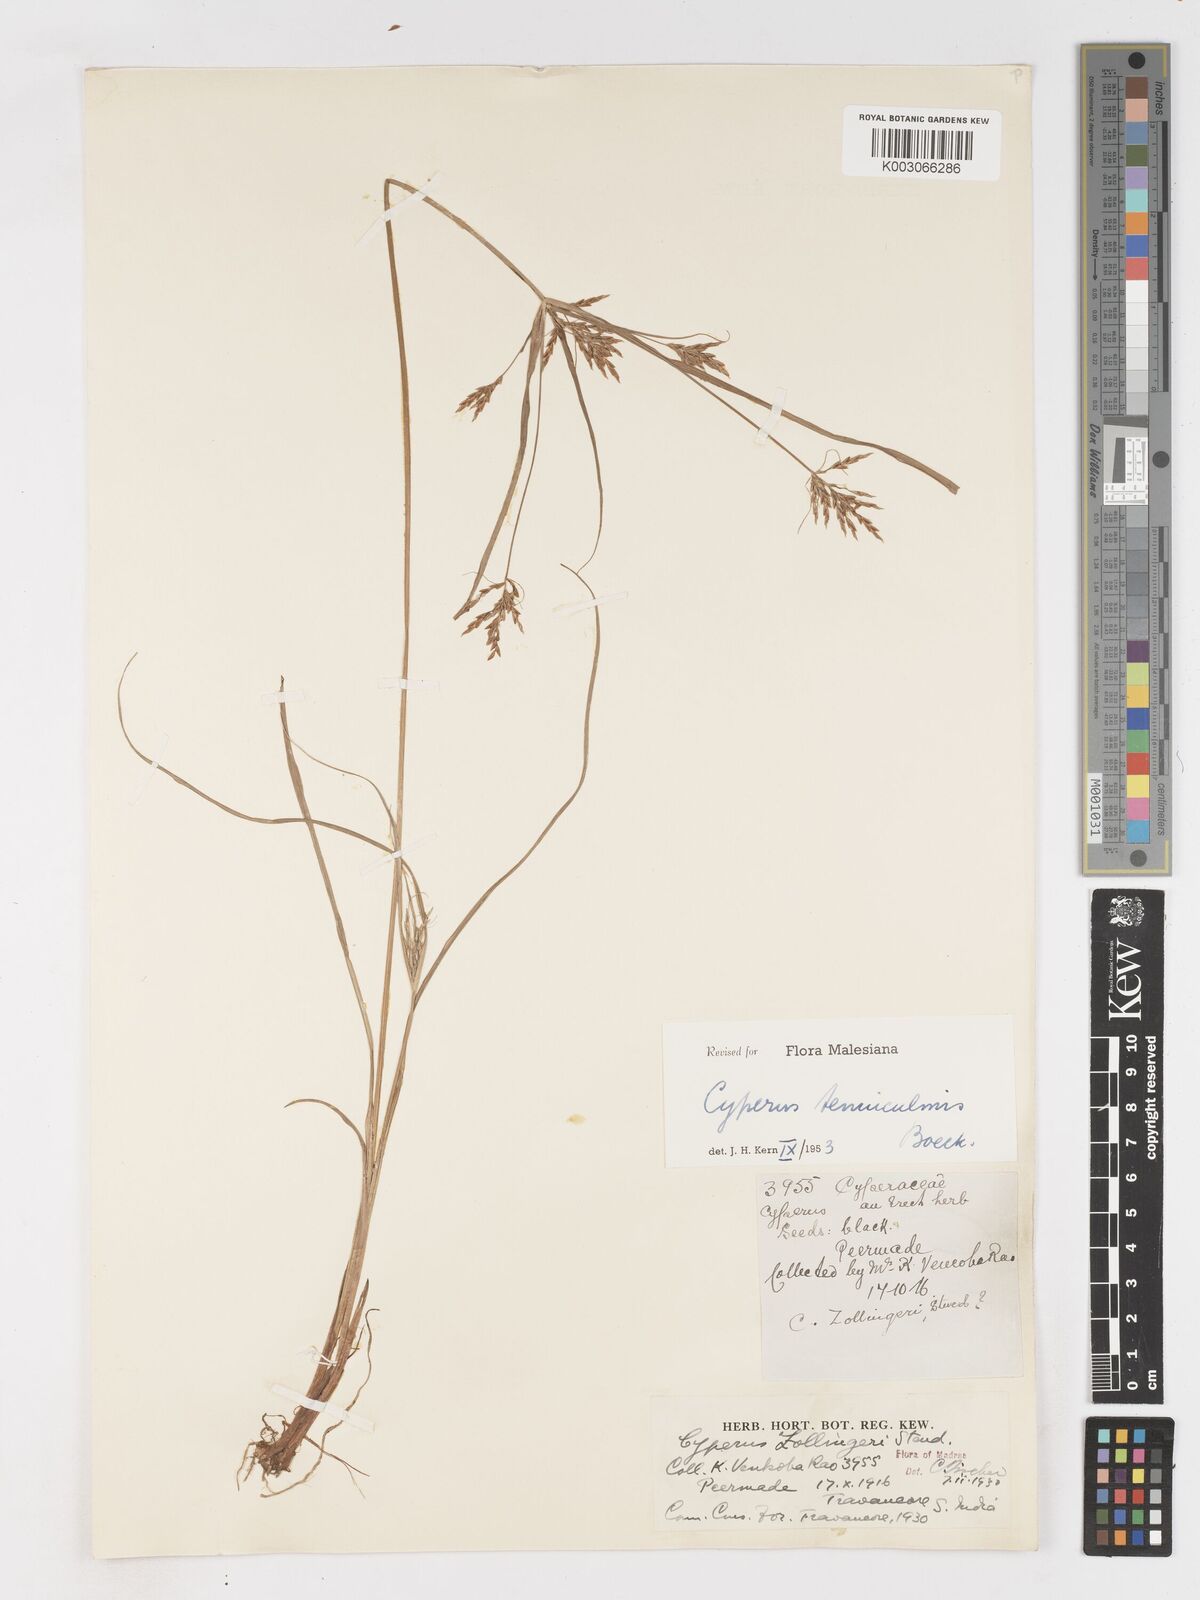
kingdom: Plantae
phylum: Tracheophyta
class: Liliopsida
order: Poales
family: Cyperaceae
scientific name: Cyperaceae
